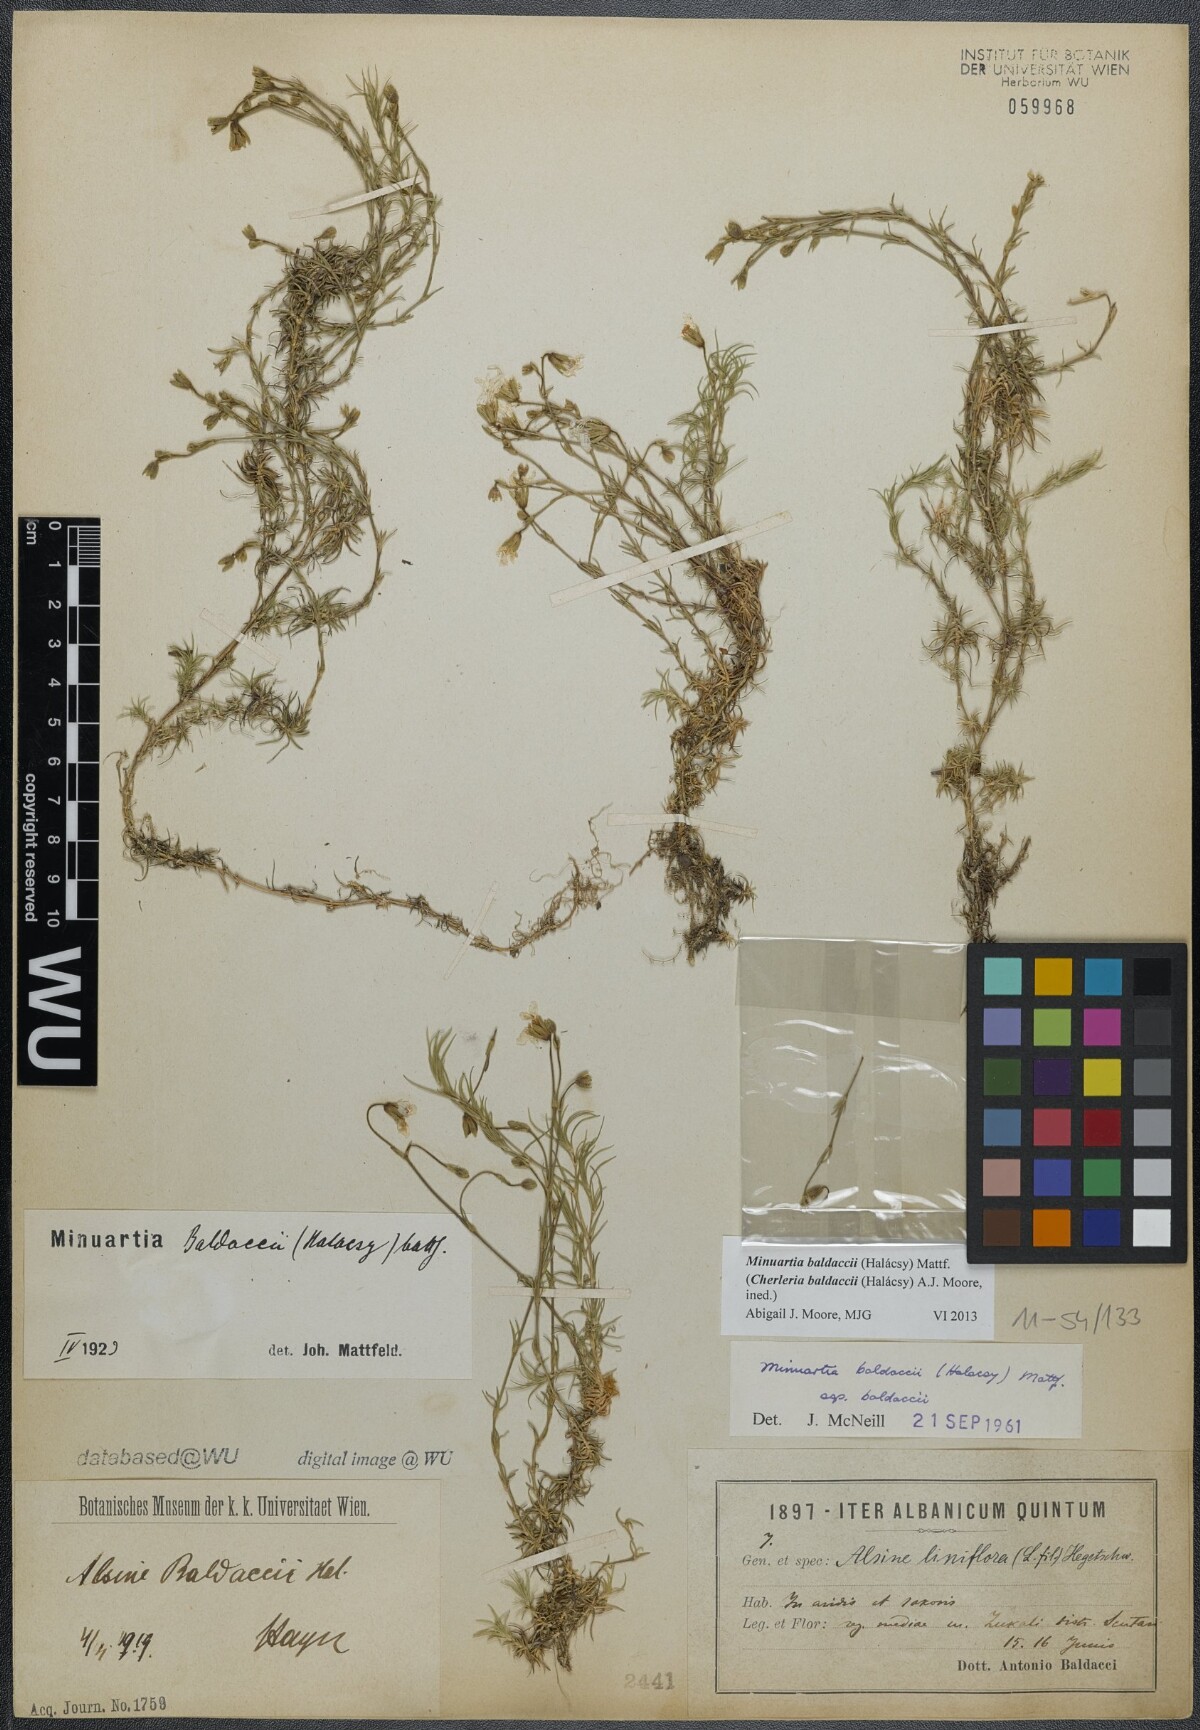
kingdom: Plantae
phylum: Tracheophyta
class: Magnoliopsida
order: Caryophyllales
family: Caryophyllaceae
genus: Cherleria
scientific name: Cherleria baldaccii
